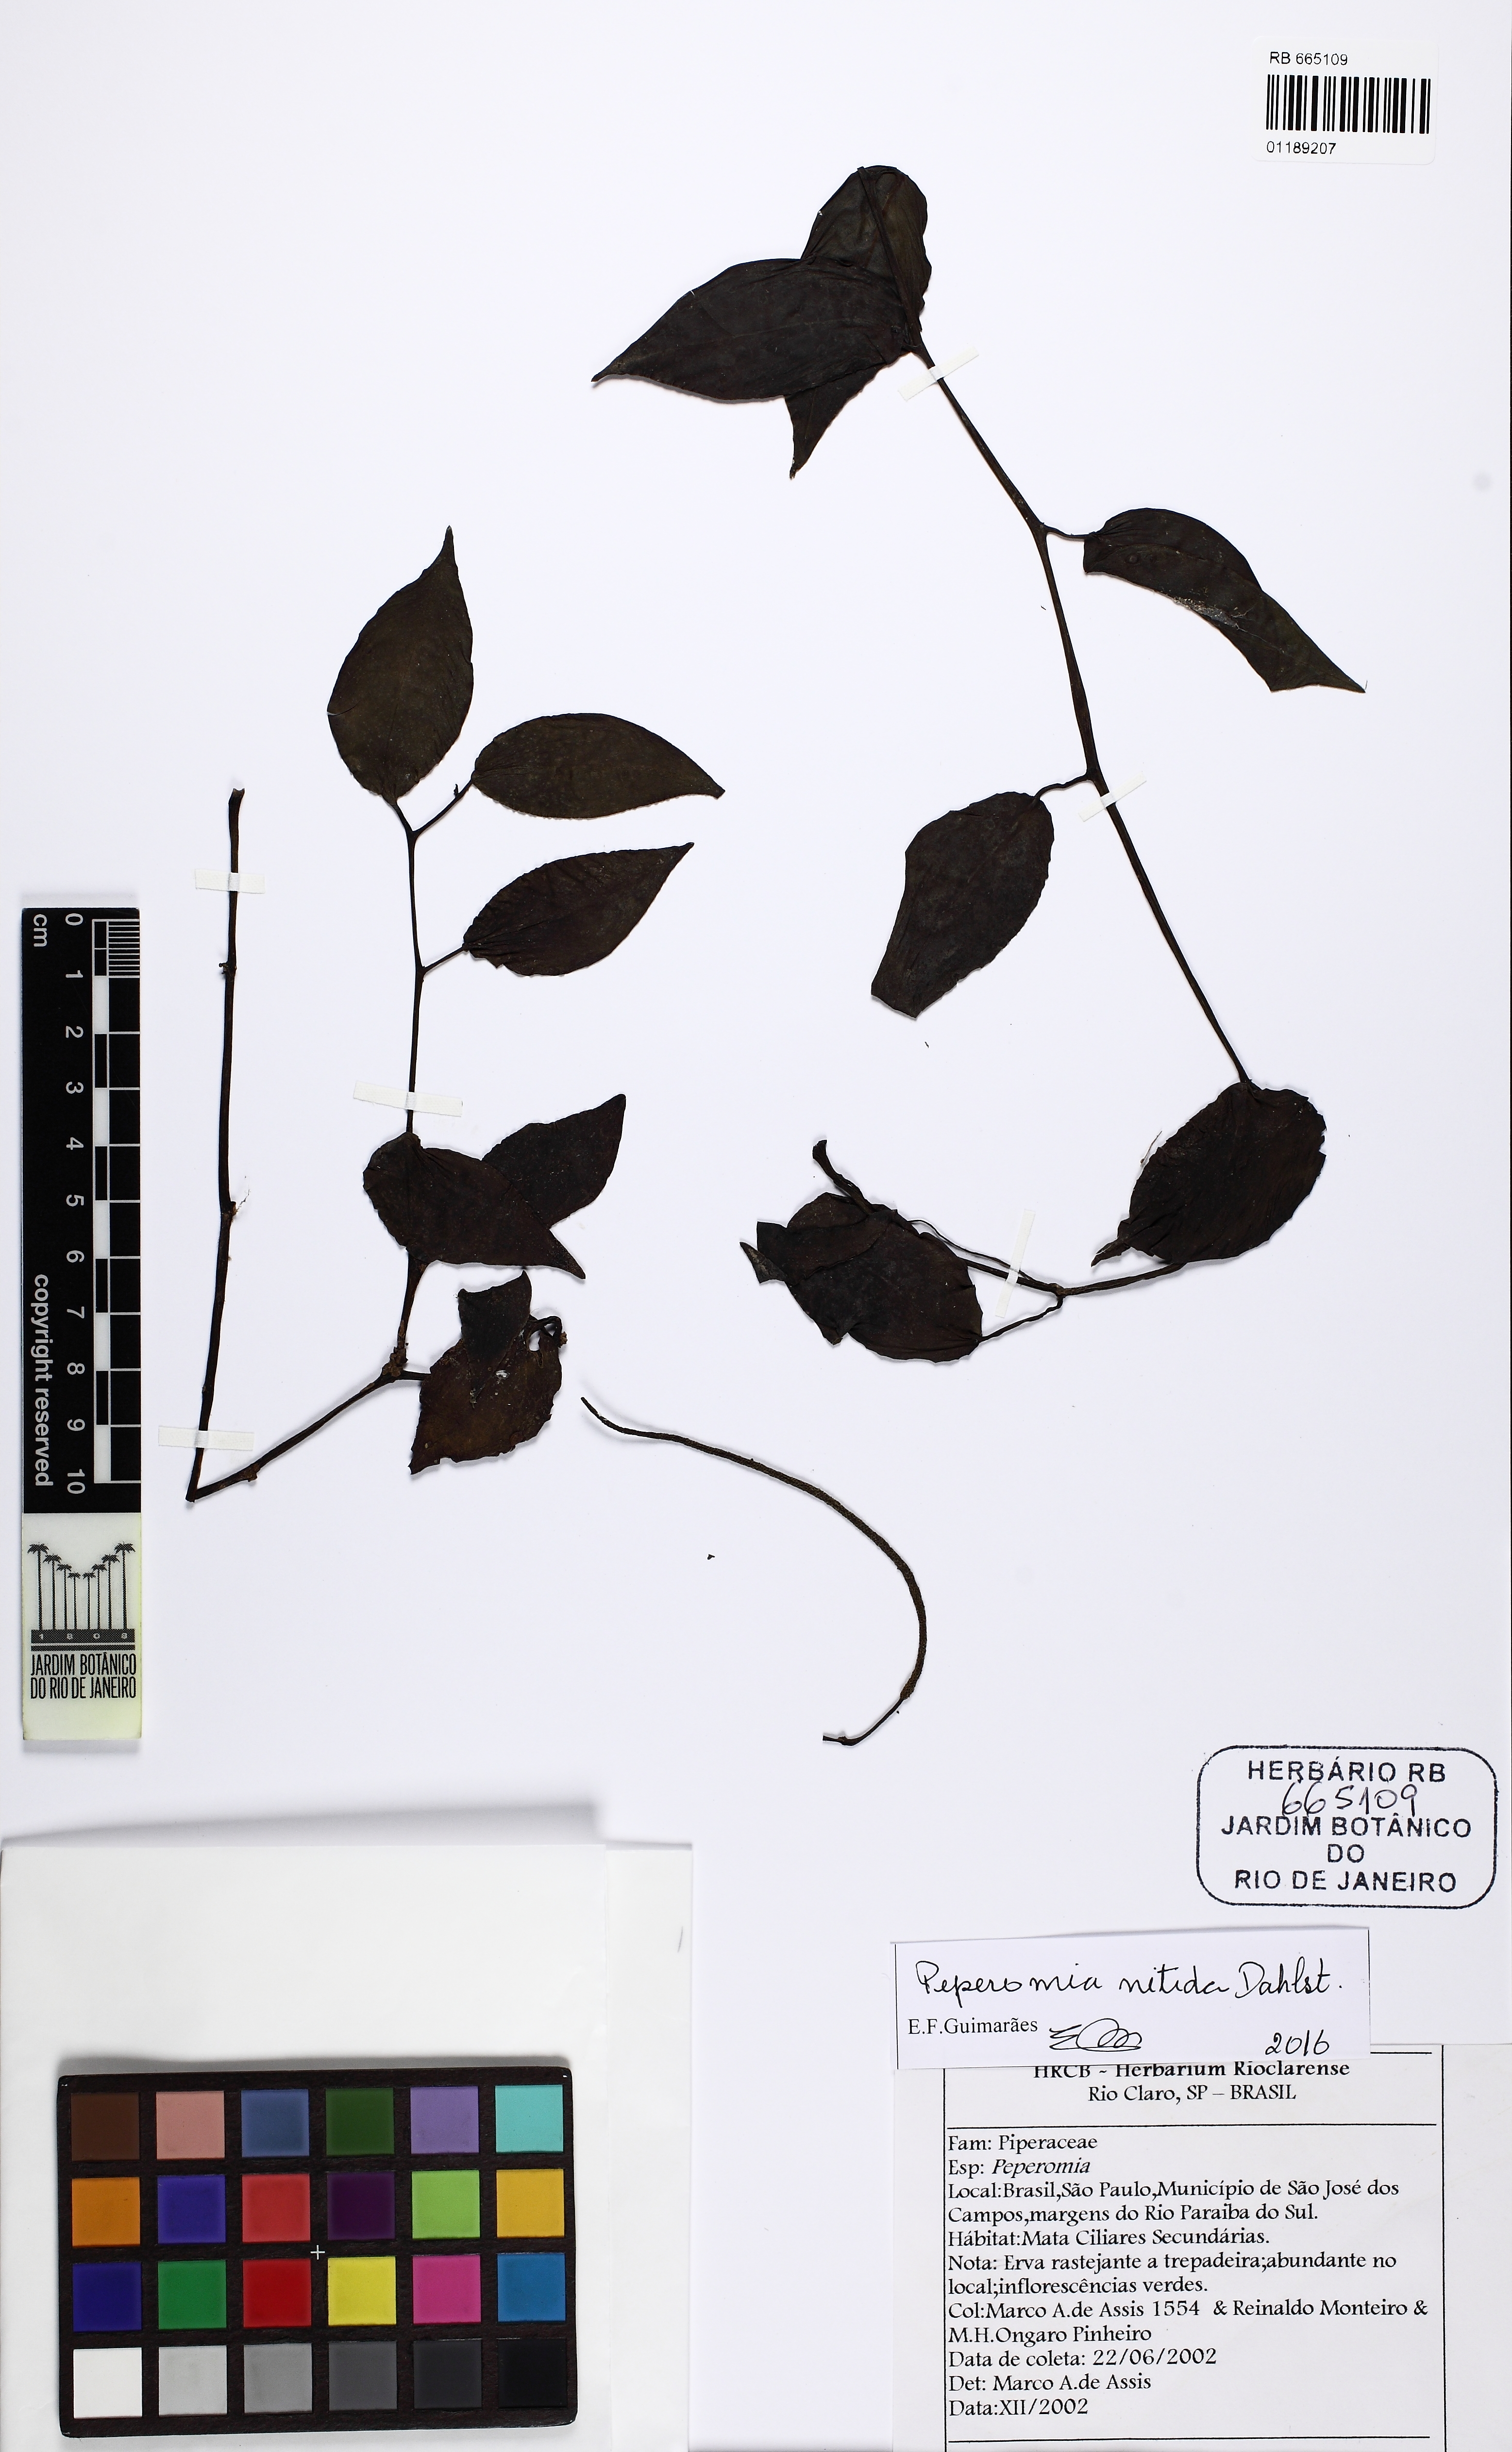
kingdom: Plantae
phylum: Tracheophyta
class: Magnoliopsida
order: Piperales
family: Piperaceae
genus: Peperomia
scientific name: Peperomia nitida
